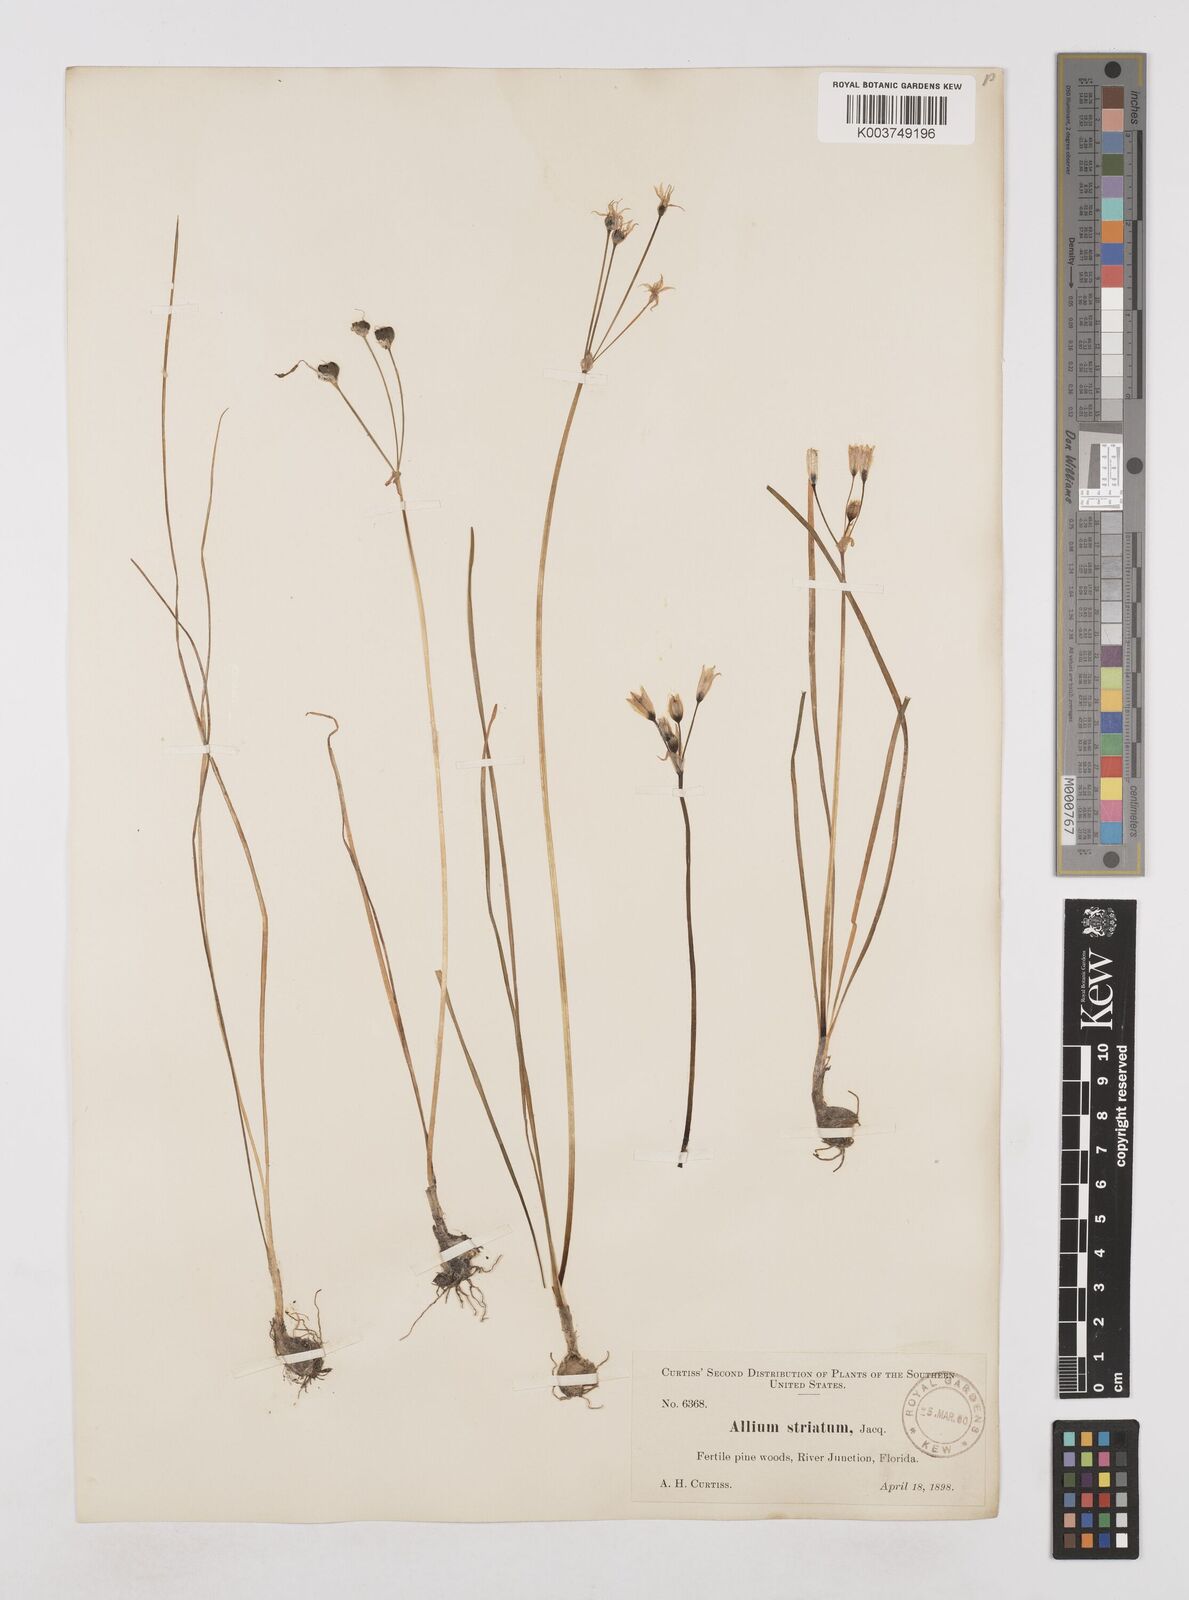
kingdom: Plantae
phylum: Tracheophyta
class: Liliopsida
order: Asparagales
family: Amaryllidaceae
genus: Nothoscordum
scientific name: Nothoscordum bivalve
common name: Crow-poison
